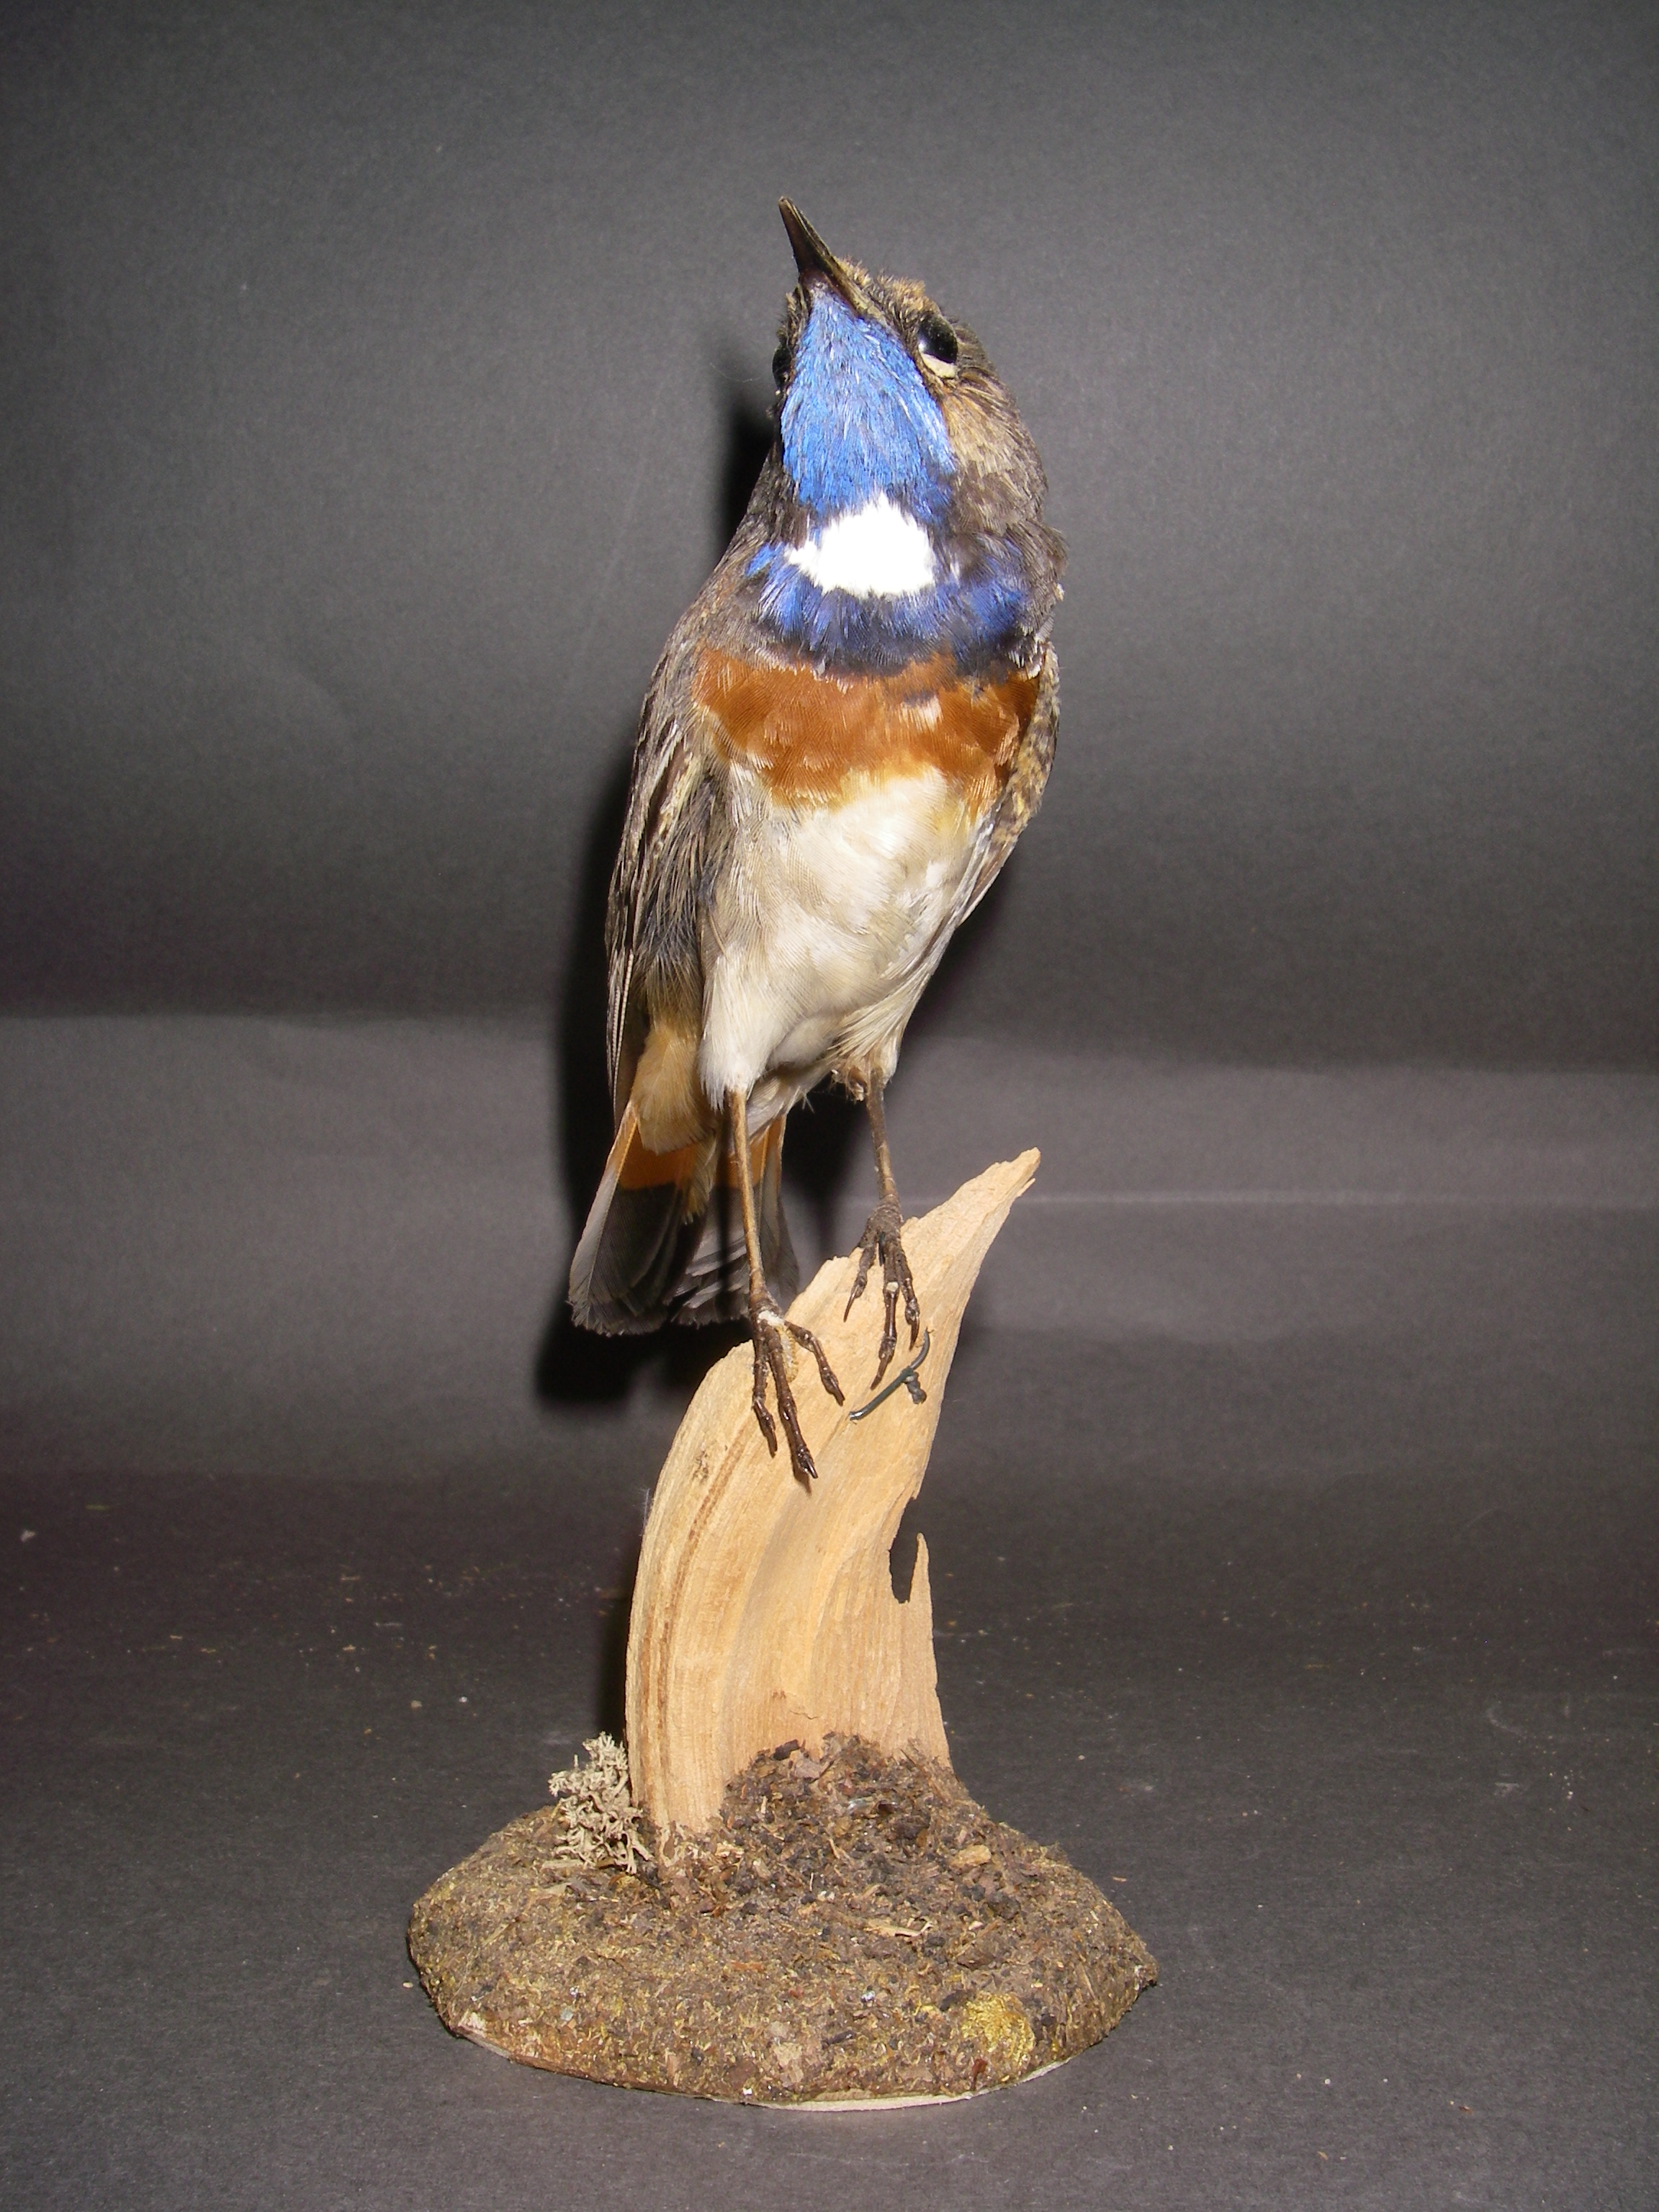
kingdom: Animalia
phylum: Chordata
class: Aves
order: Passeriformes
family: Muscicapidae
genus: Luscinia
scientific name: Luscinia svecica
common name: Bluethroat
